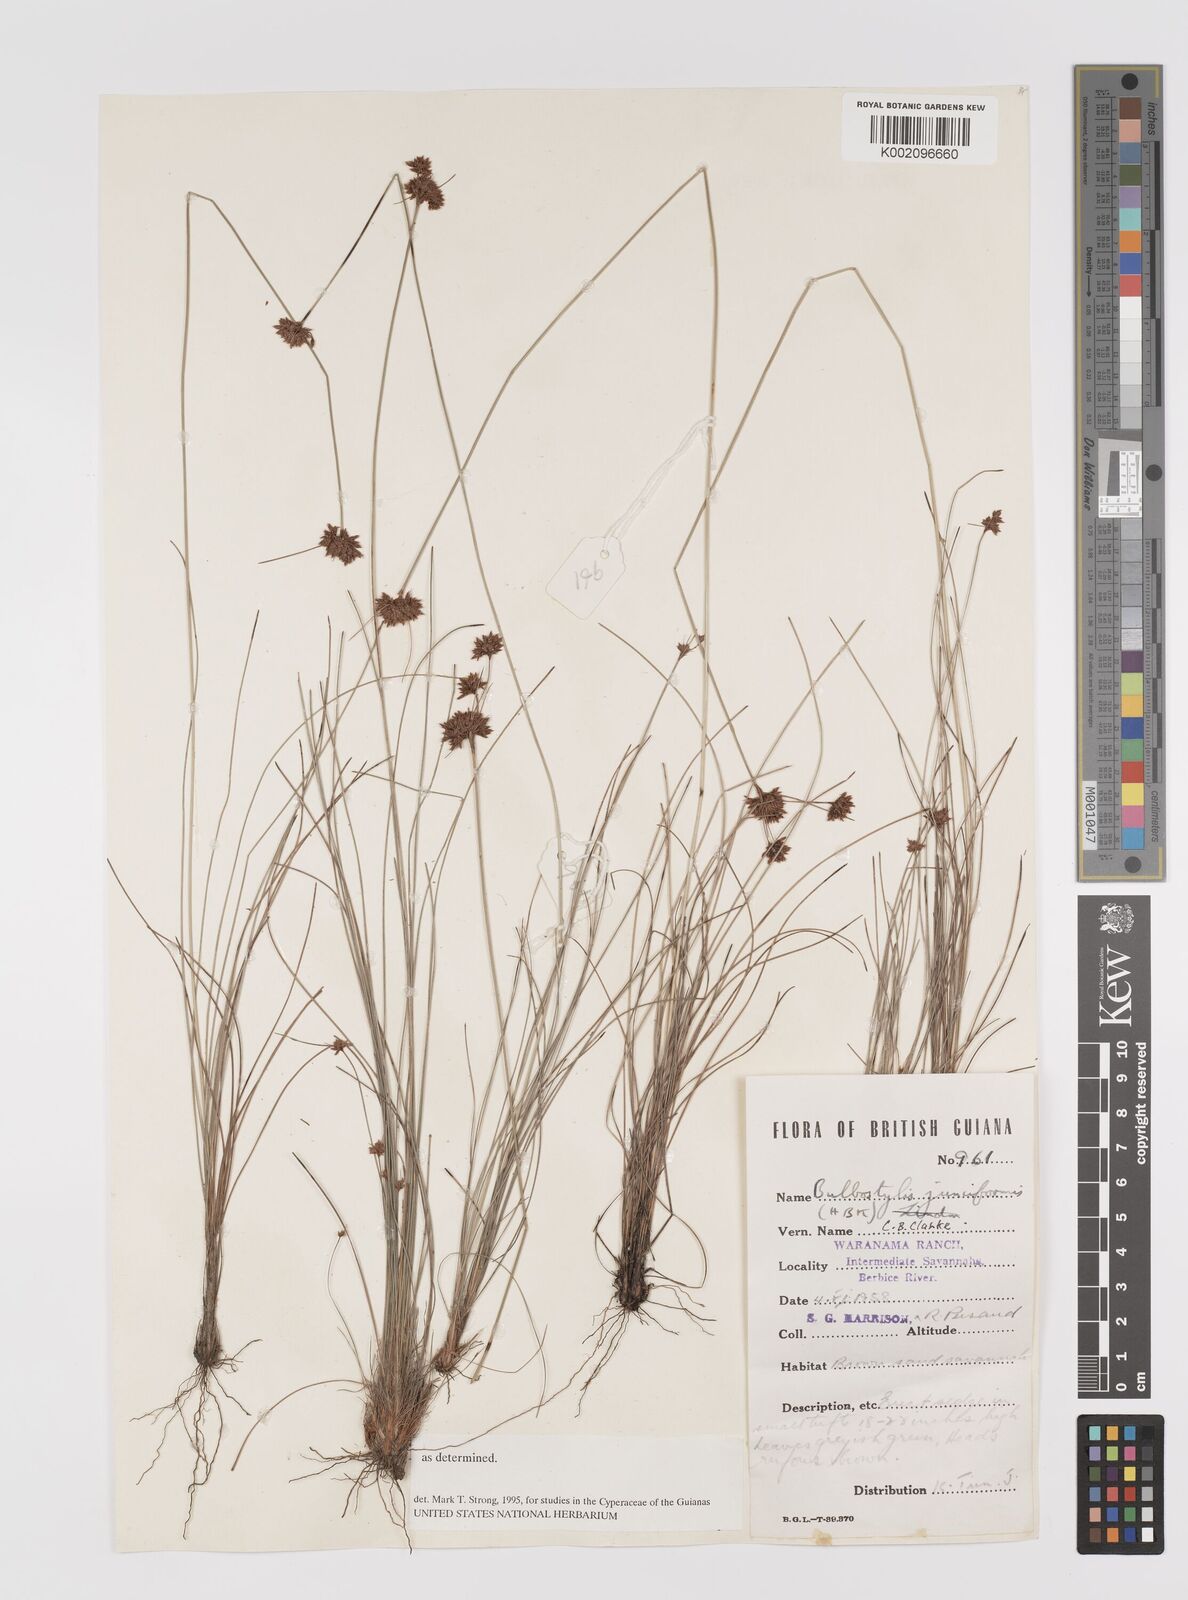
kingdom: Plantae
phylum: Tracheophyta
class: Liliopsida
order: Poales
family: Cyperaceae
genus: Bulbostylis
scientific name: Bulbostylis junciformis
